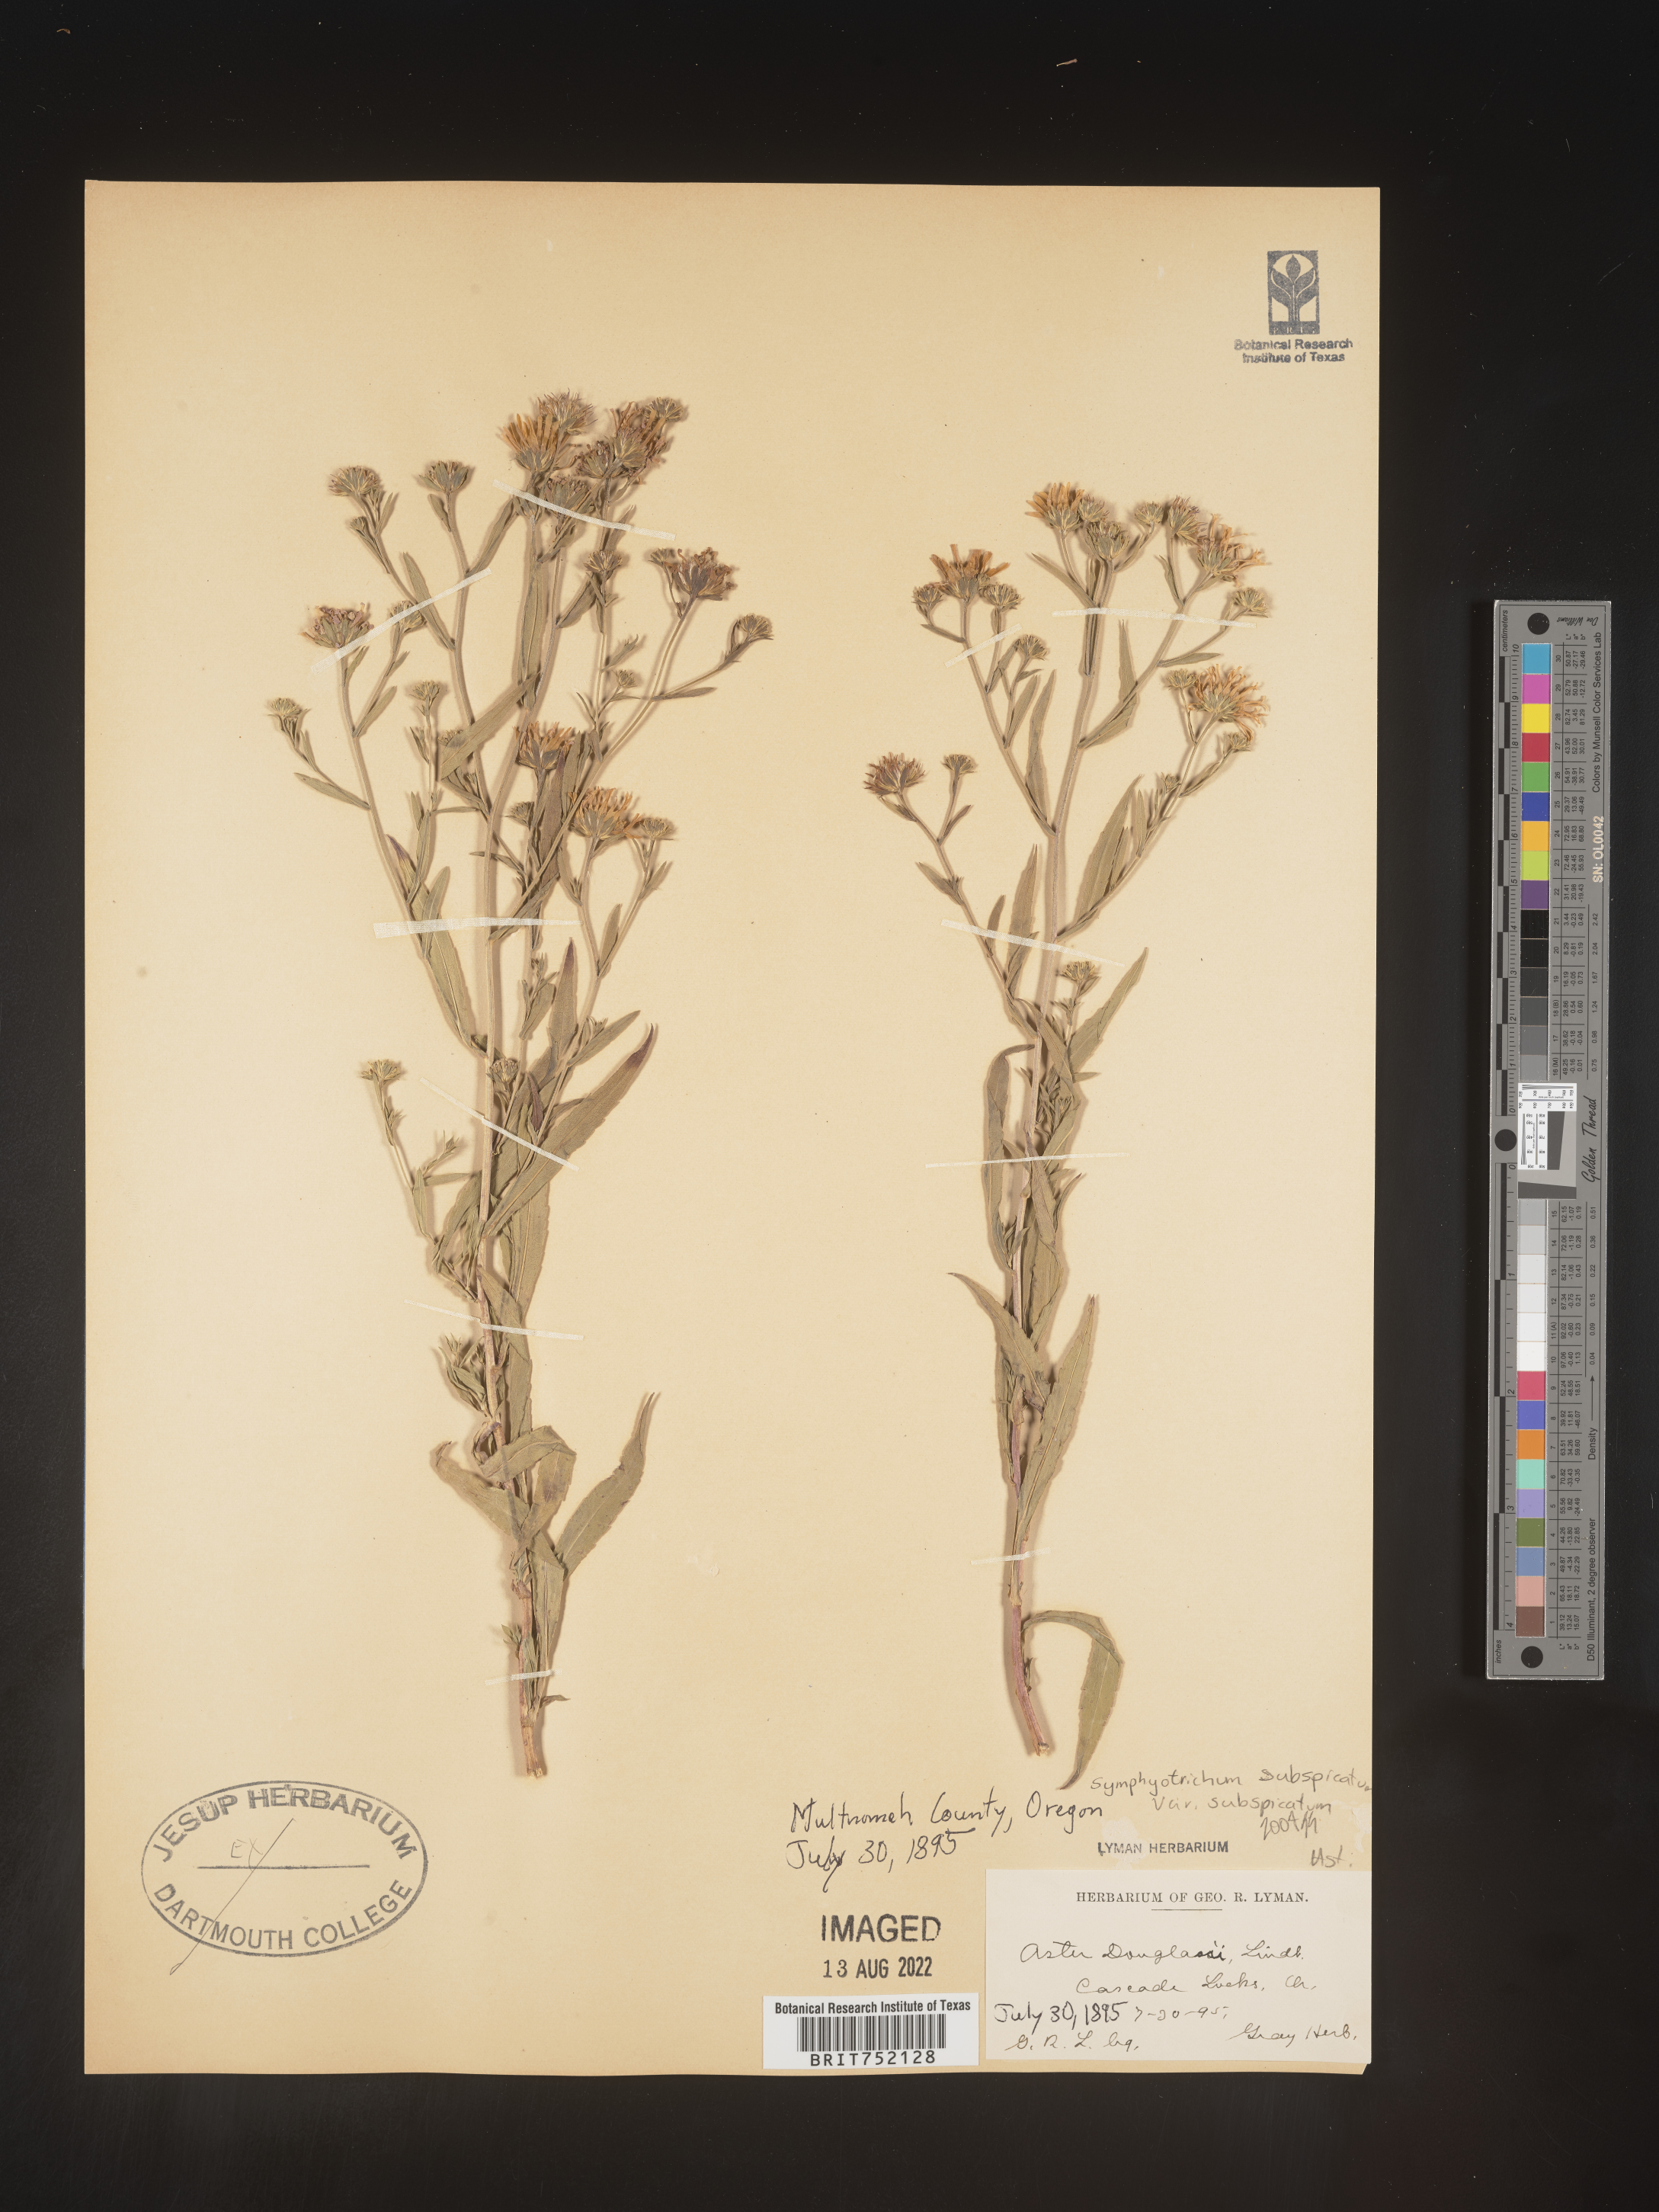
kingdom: Plantae
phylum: Tracheophyta
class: Magnoliopsida
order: Asterales
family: Asteraceae
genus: Symphyotrichum
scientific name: Symphyotrichum bracteolatum
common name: Eaton's aster
